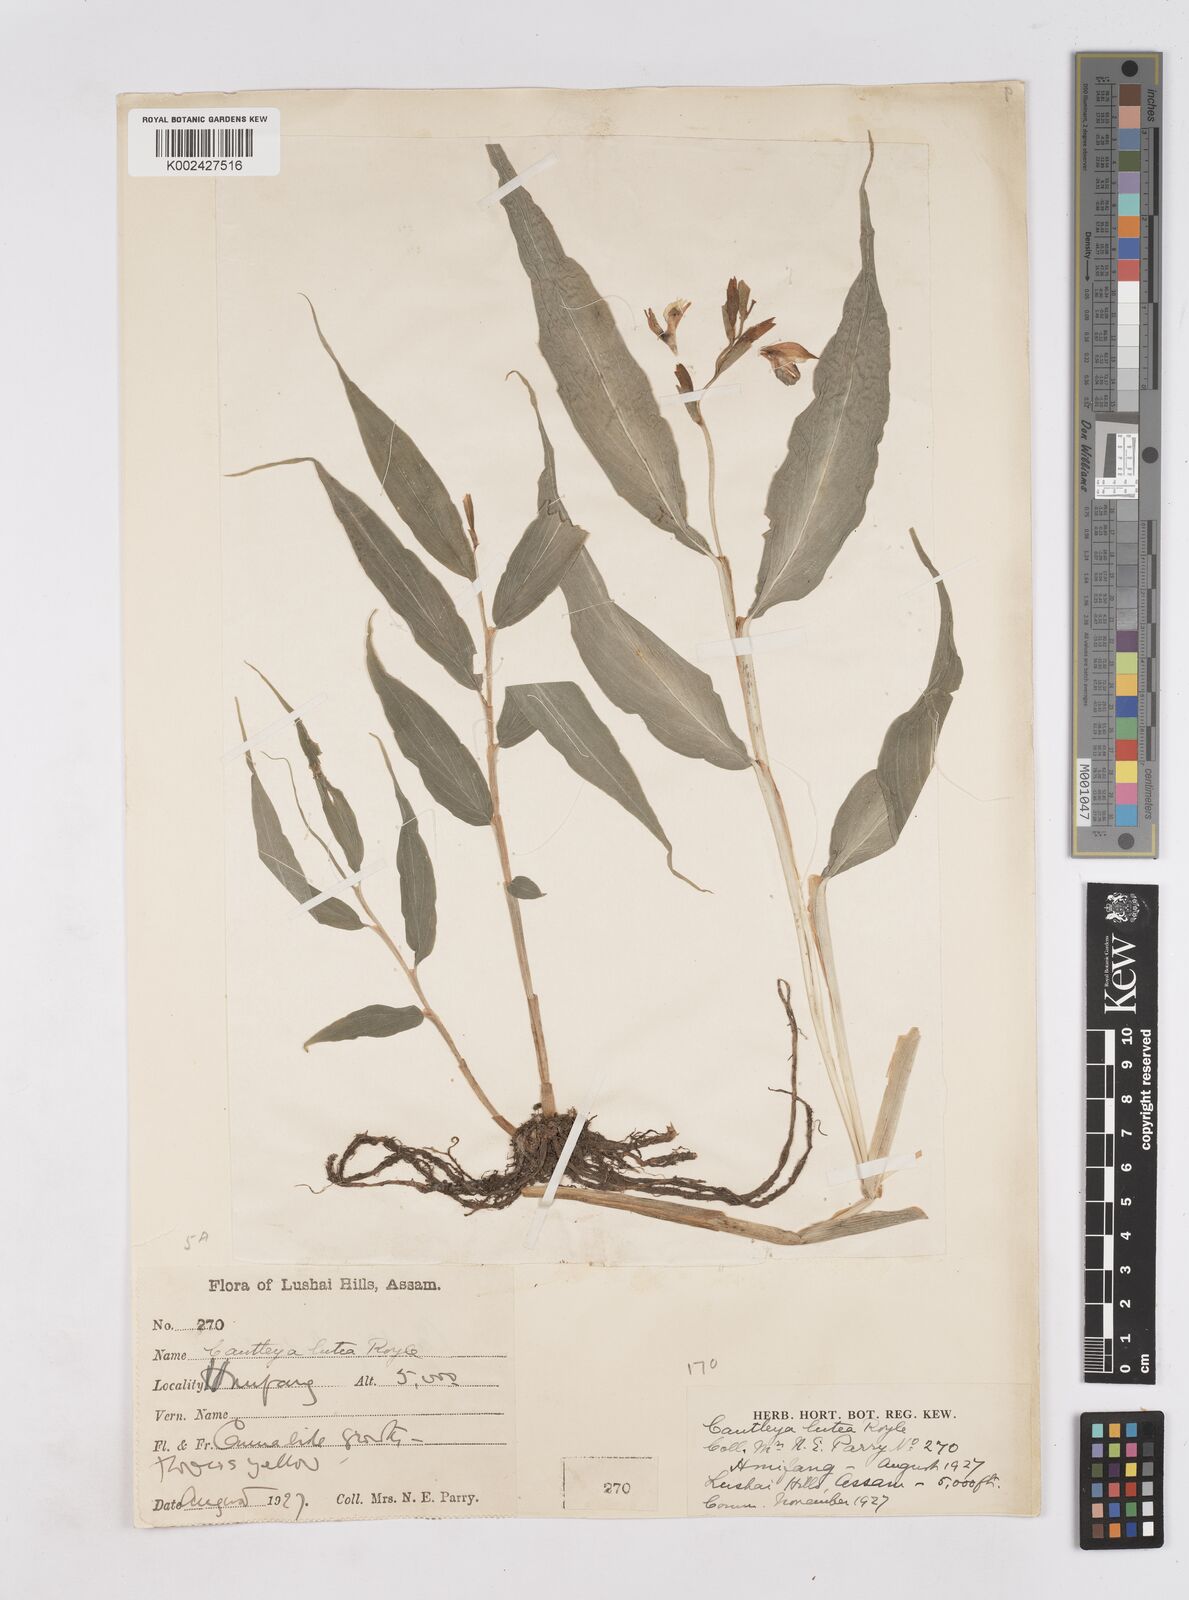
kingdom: Plantae
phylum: Tracheophyta
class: Liliopsida
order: Zingiberales
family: Zingiberaceae
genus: Cautleya
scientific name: Cautleya gracilis
